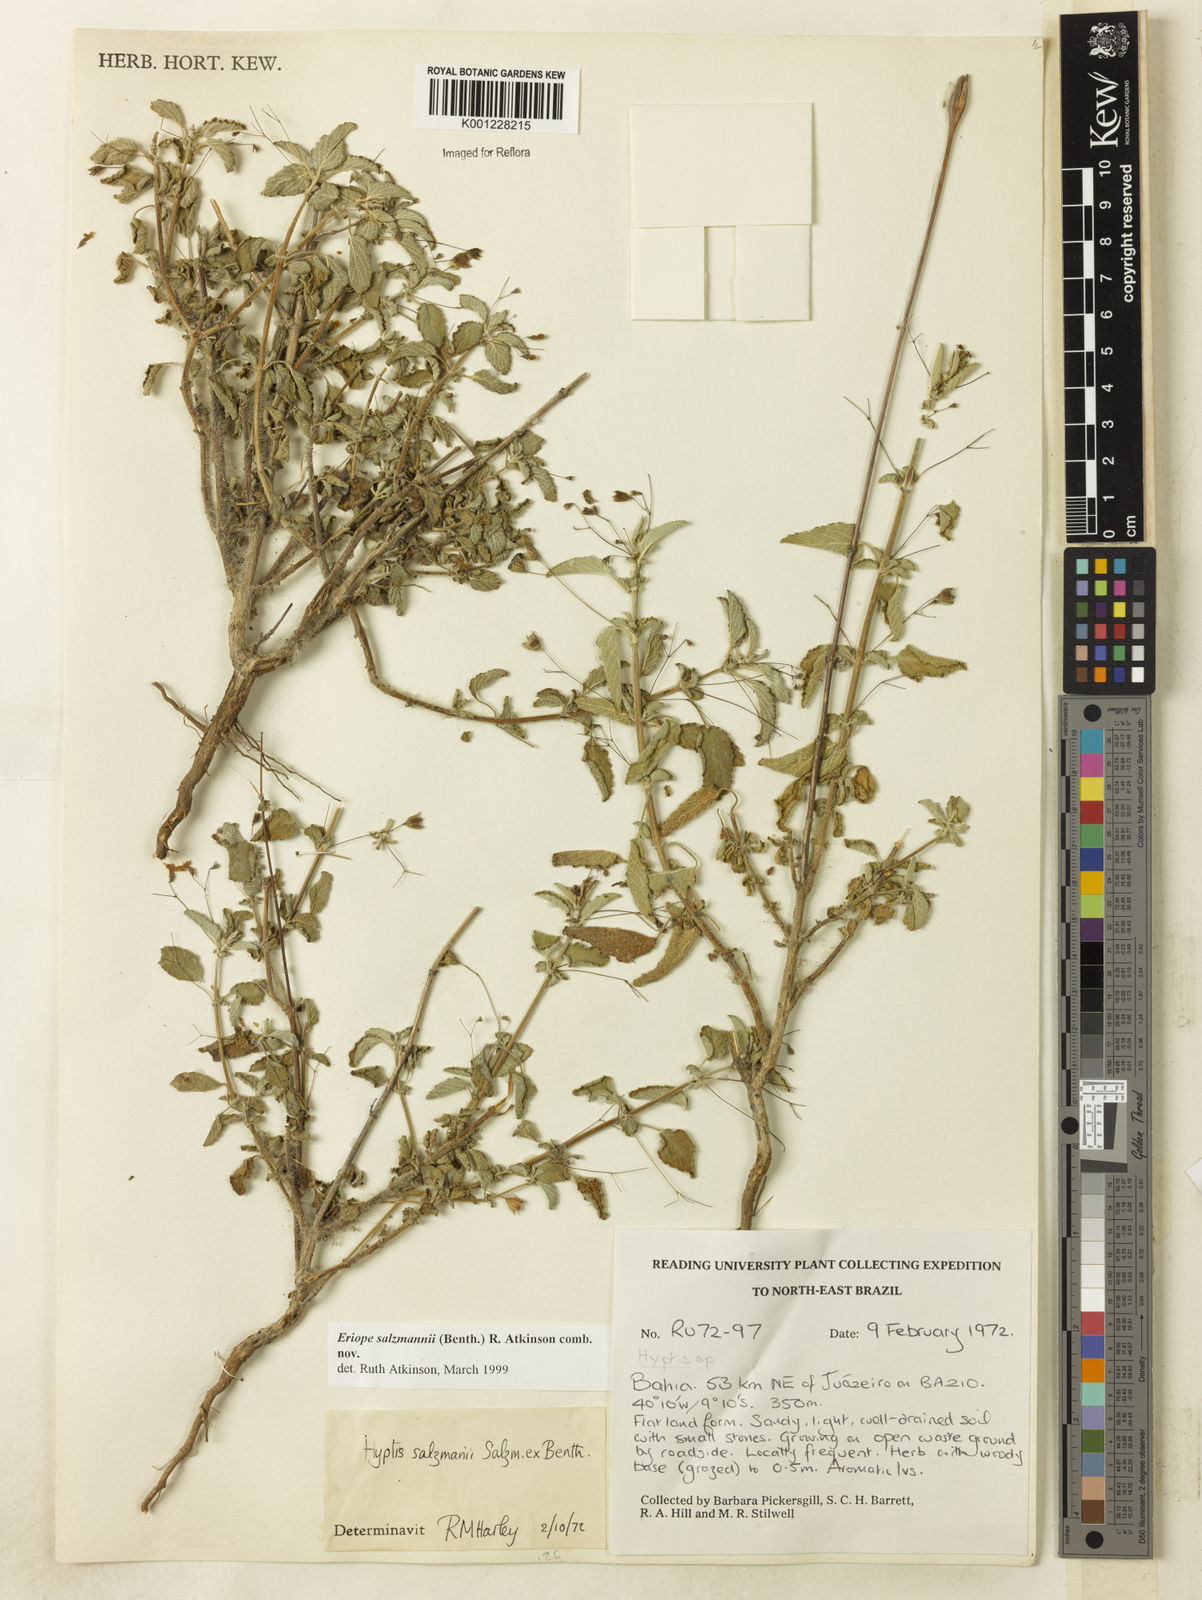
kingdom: Plantae
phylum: Tracheophyta
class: Magnoliopsida
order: Lamiales
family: Lamiaceae
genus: Hypenia
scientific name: Hypenia salzmannii
